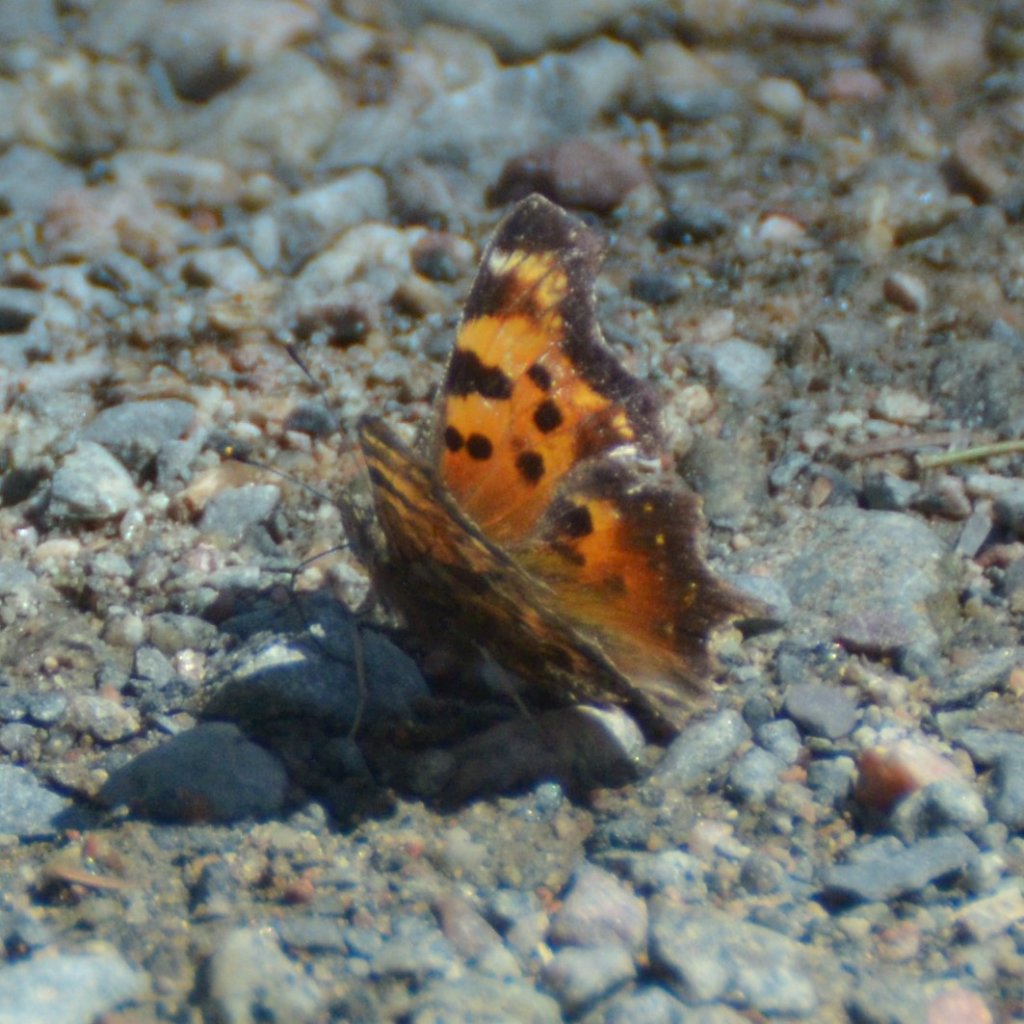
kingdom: Animalia
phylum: Arthropoda
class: Insecta
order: Lepidoptera
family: Nymphalidae
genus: Polygonia
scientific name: Polygonia faunus
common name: Green Comma
